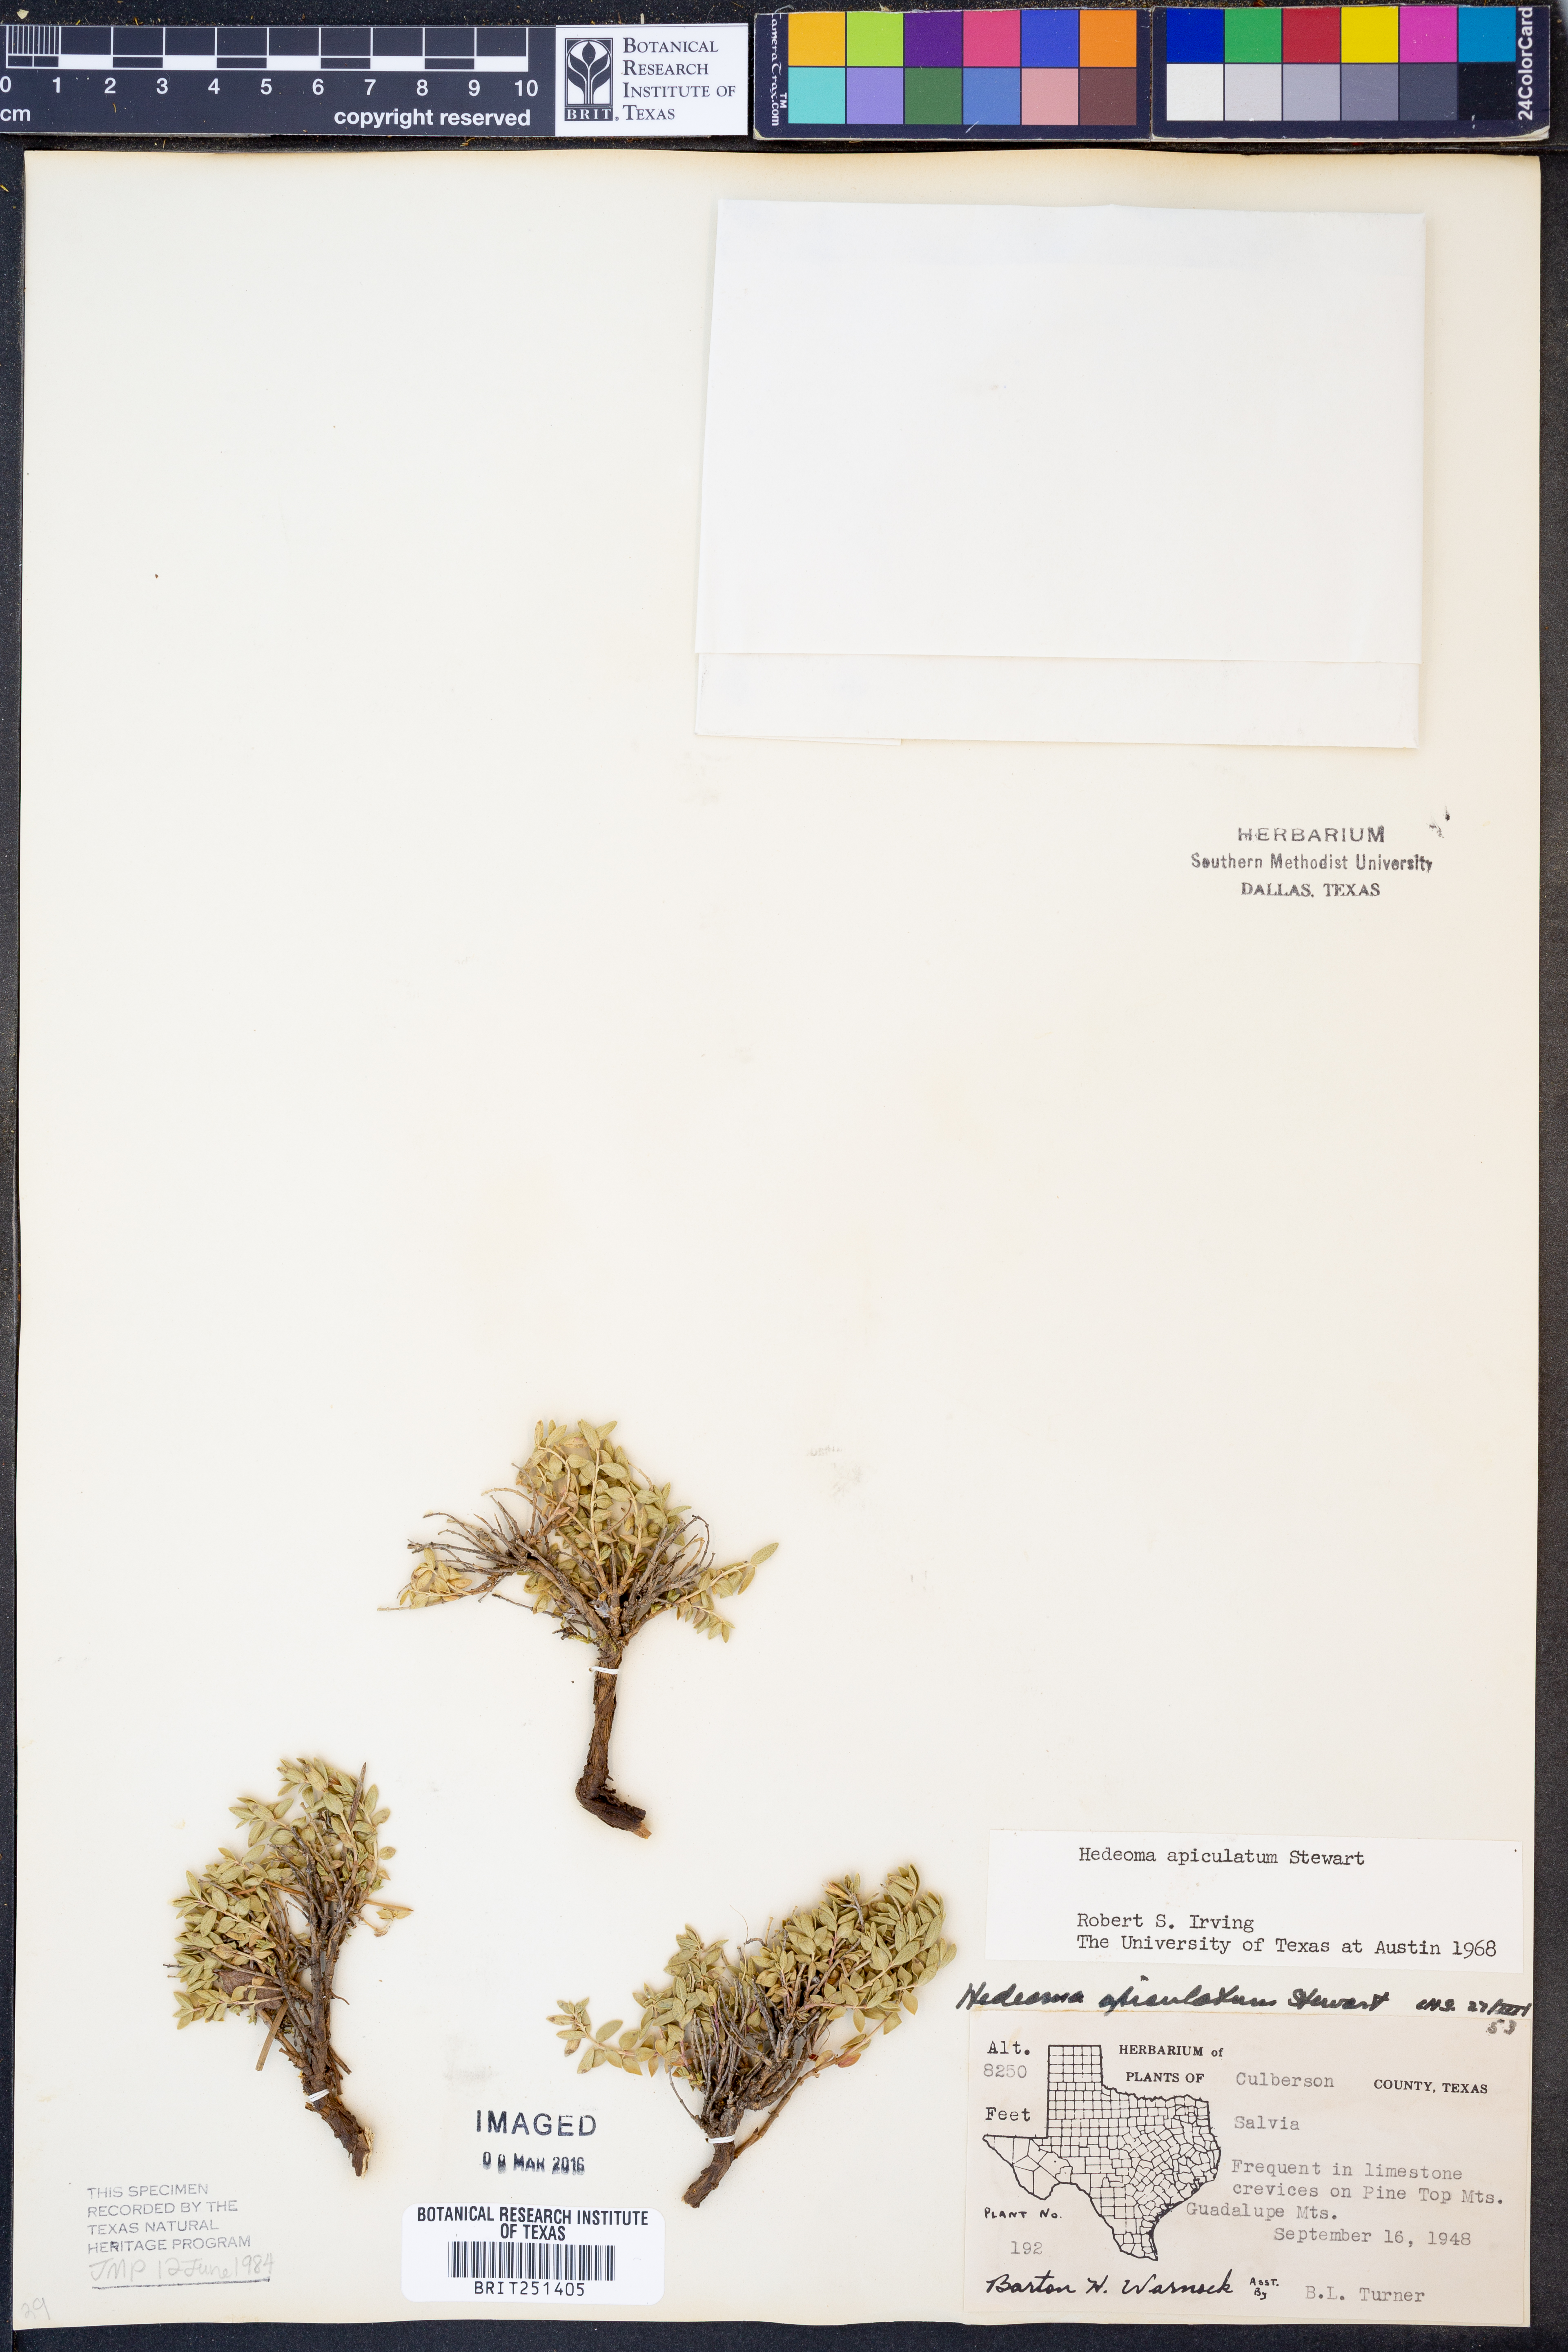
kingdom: Plantae
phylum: Tracheophyta
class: Magnoliopsida
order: Lamiales
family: Lamiaceae
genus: Hedeoma
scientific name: Hedeoma apiculata
